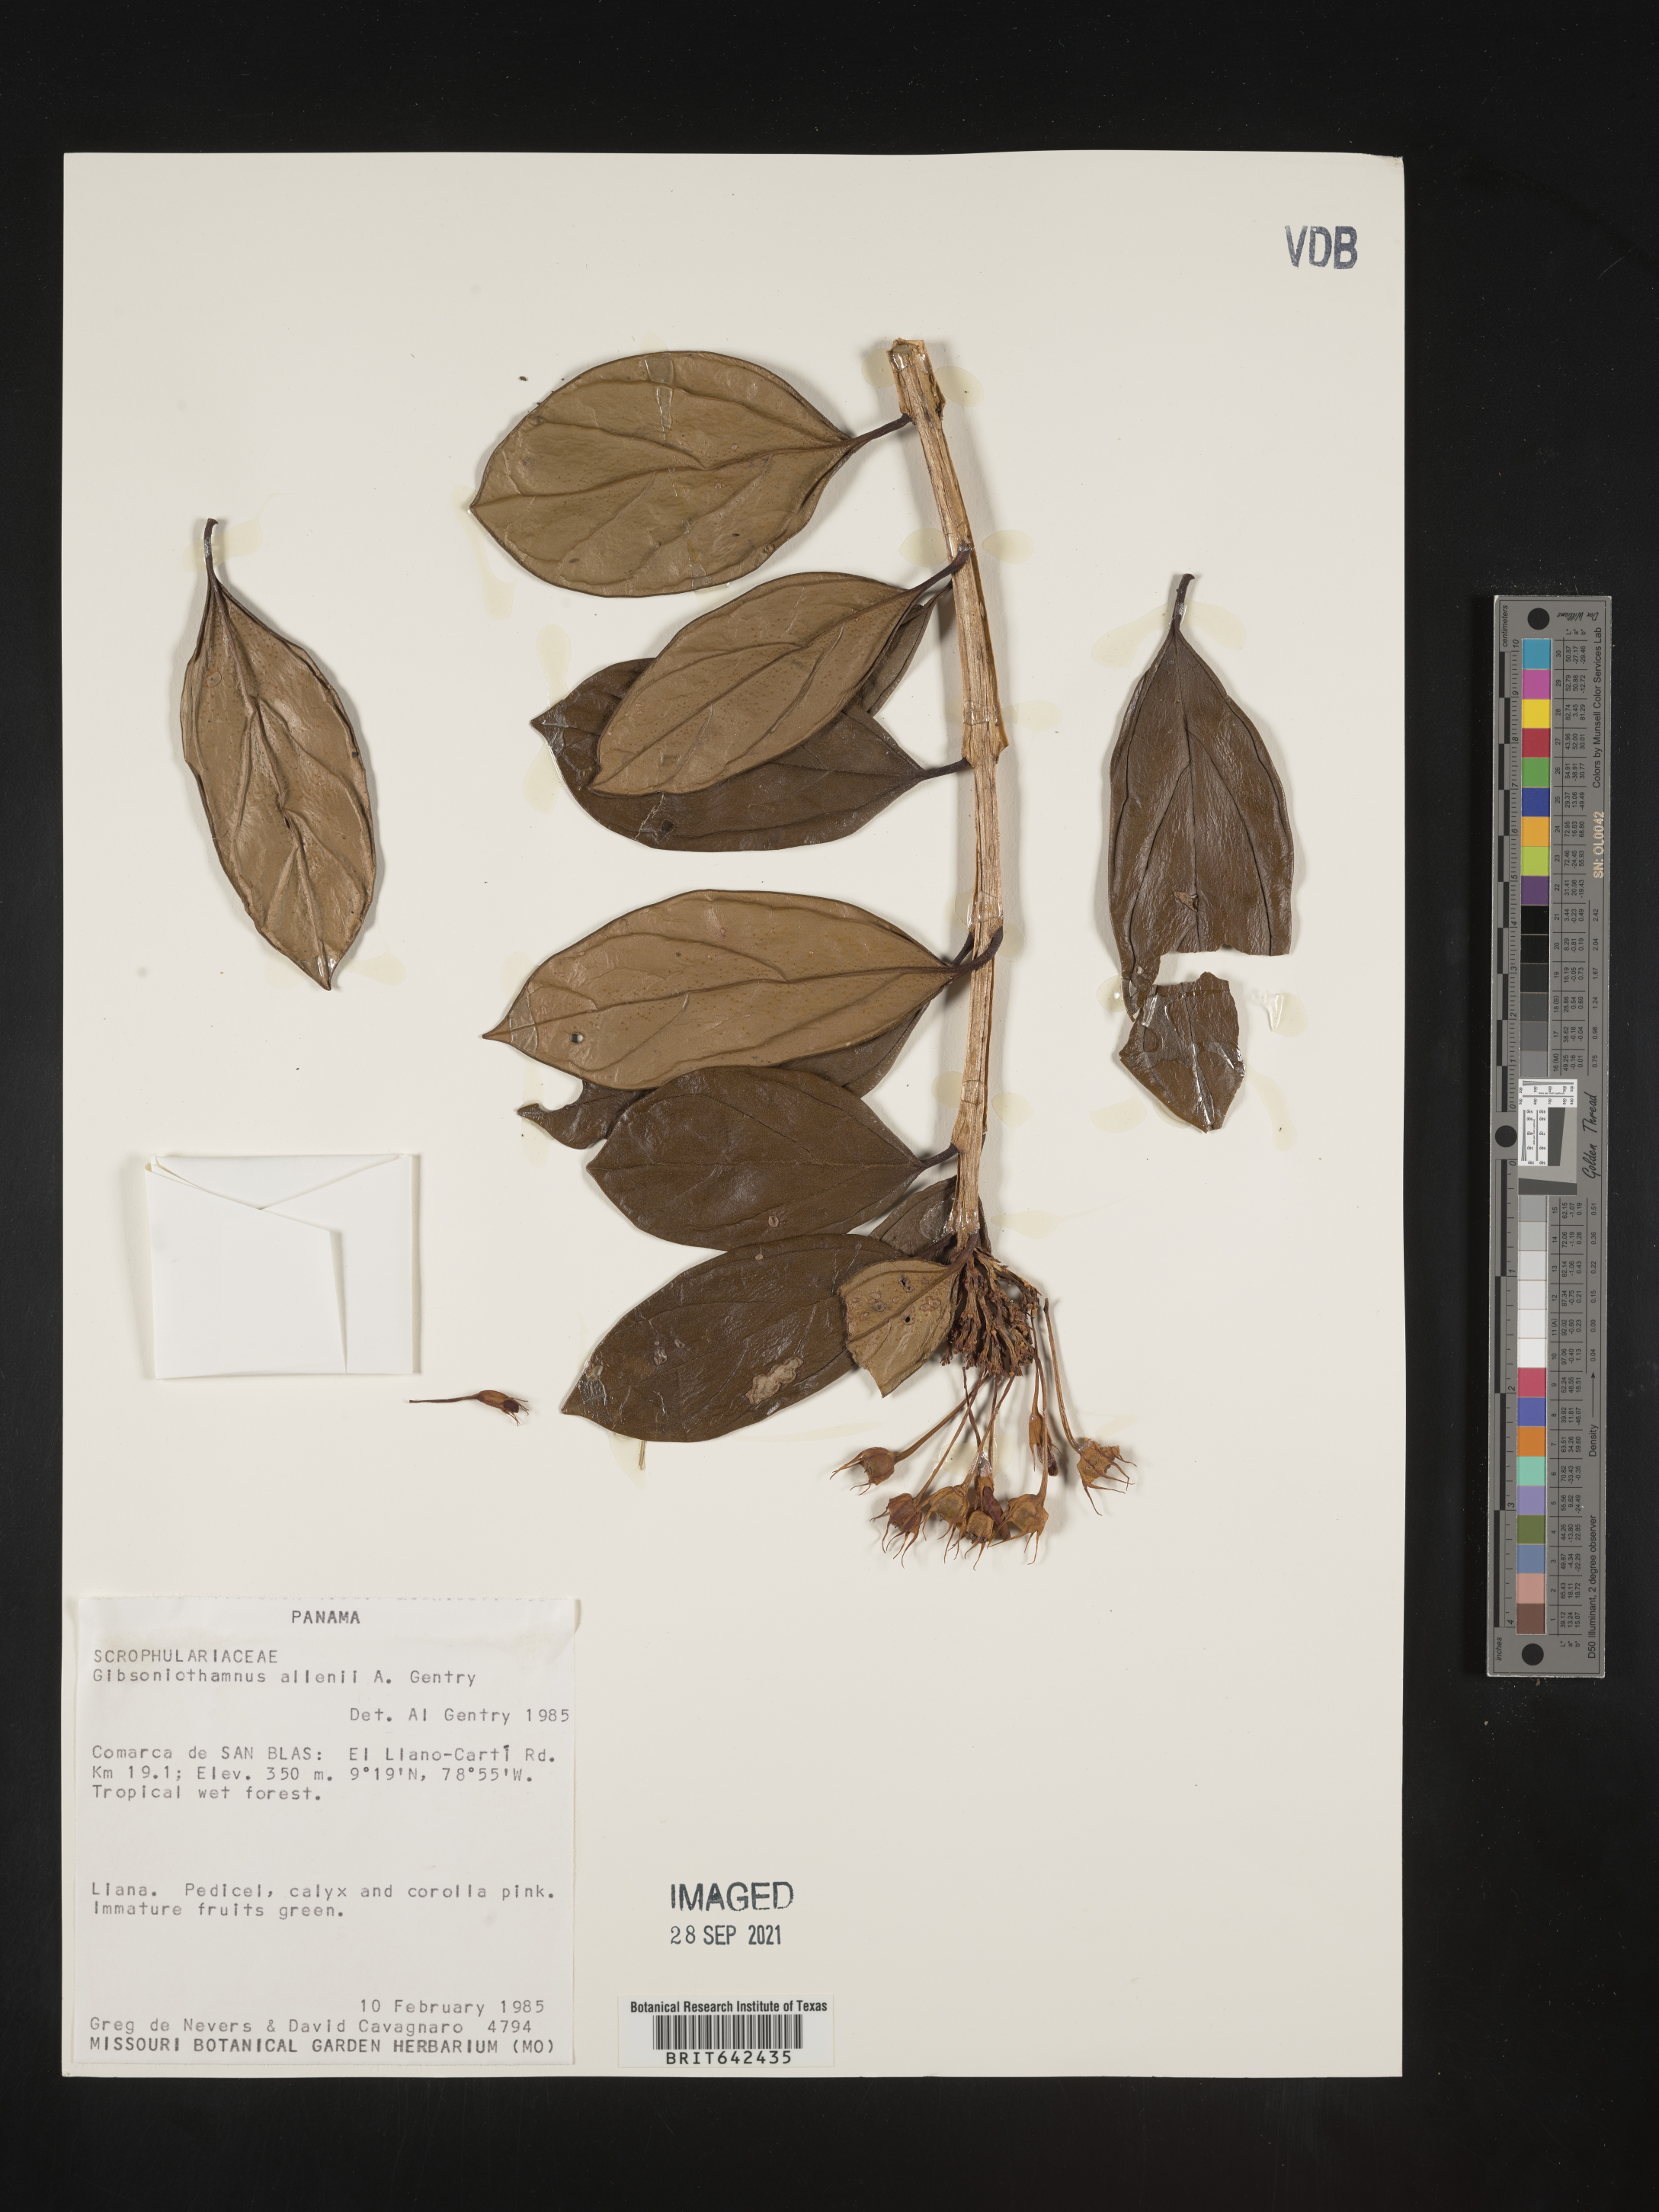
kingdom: Plantae
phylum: Tracheophyta
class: Magnoliopsida
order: Lamiales
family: Schlegeliaceae
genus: Gibsoniothamnus
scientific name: Gibsoniothamnus allenii
